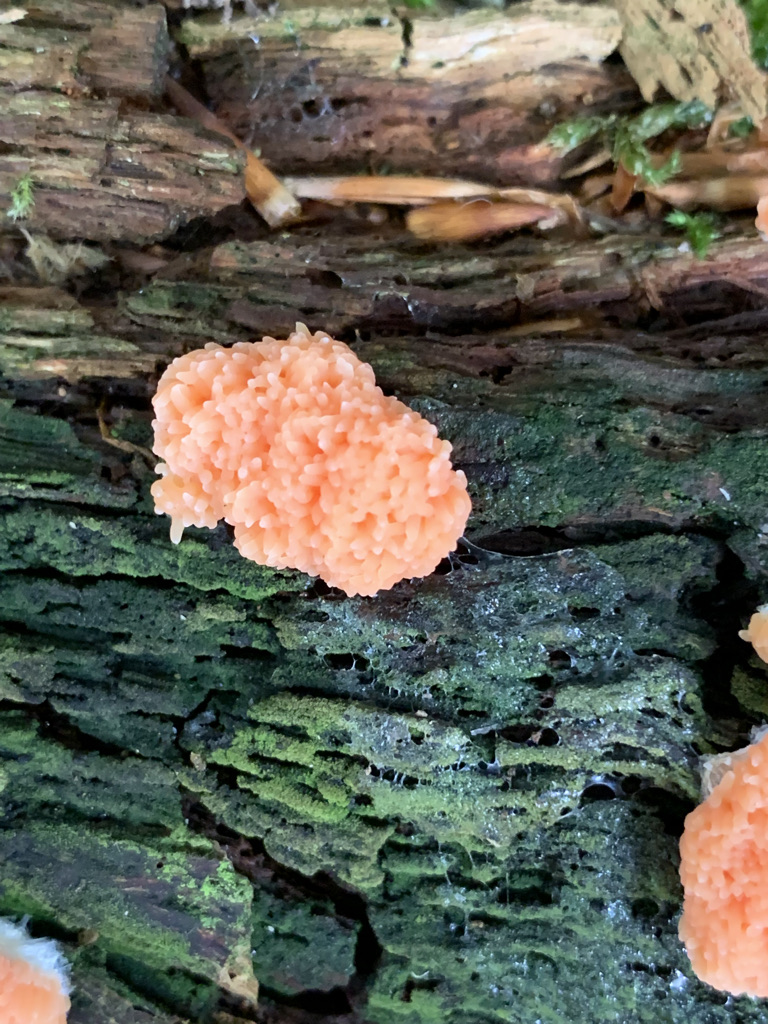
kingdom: Protozoa
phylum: Mycetozoa
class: Myxomycetes
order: Cribrariales
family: Tubiferaceae
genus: Tubifera
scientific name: Tubifera ferruginosa
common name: kanel-støvrør
